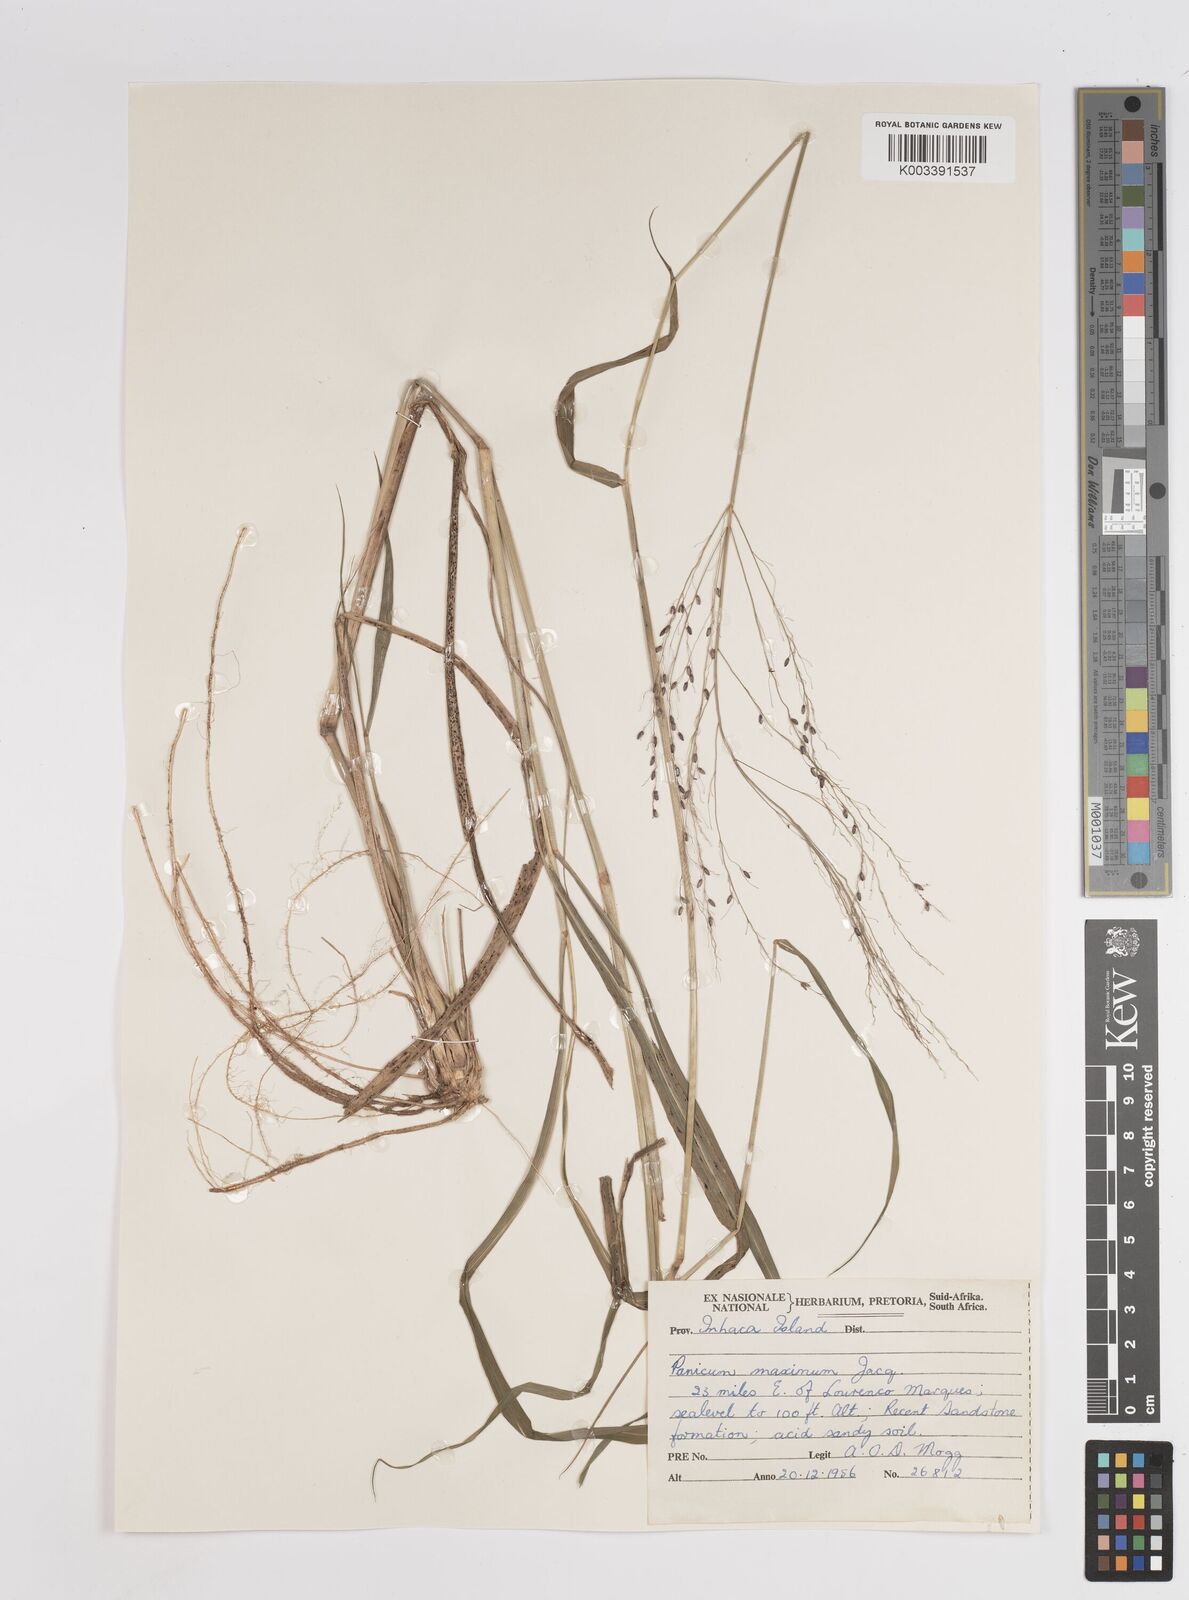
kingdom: Plantae
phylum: Tracheophyta
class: Liliopsida
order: Poales
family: Poaceae
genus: Megathyrsus
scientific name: Megathyrsus maximus
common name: Guineagrass
